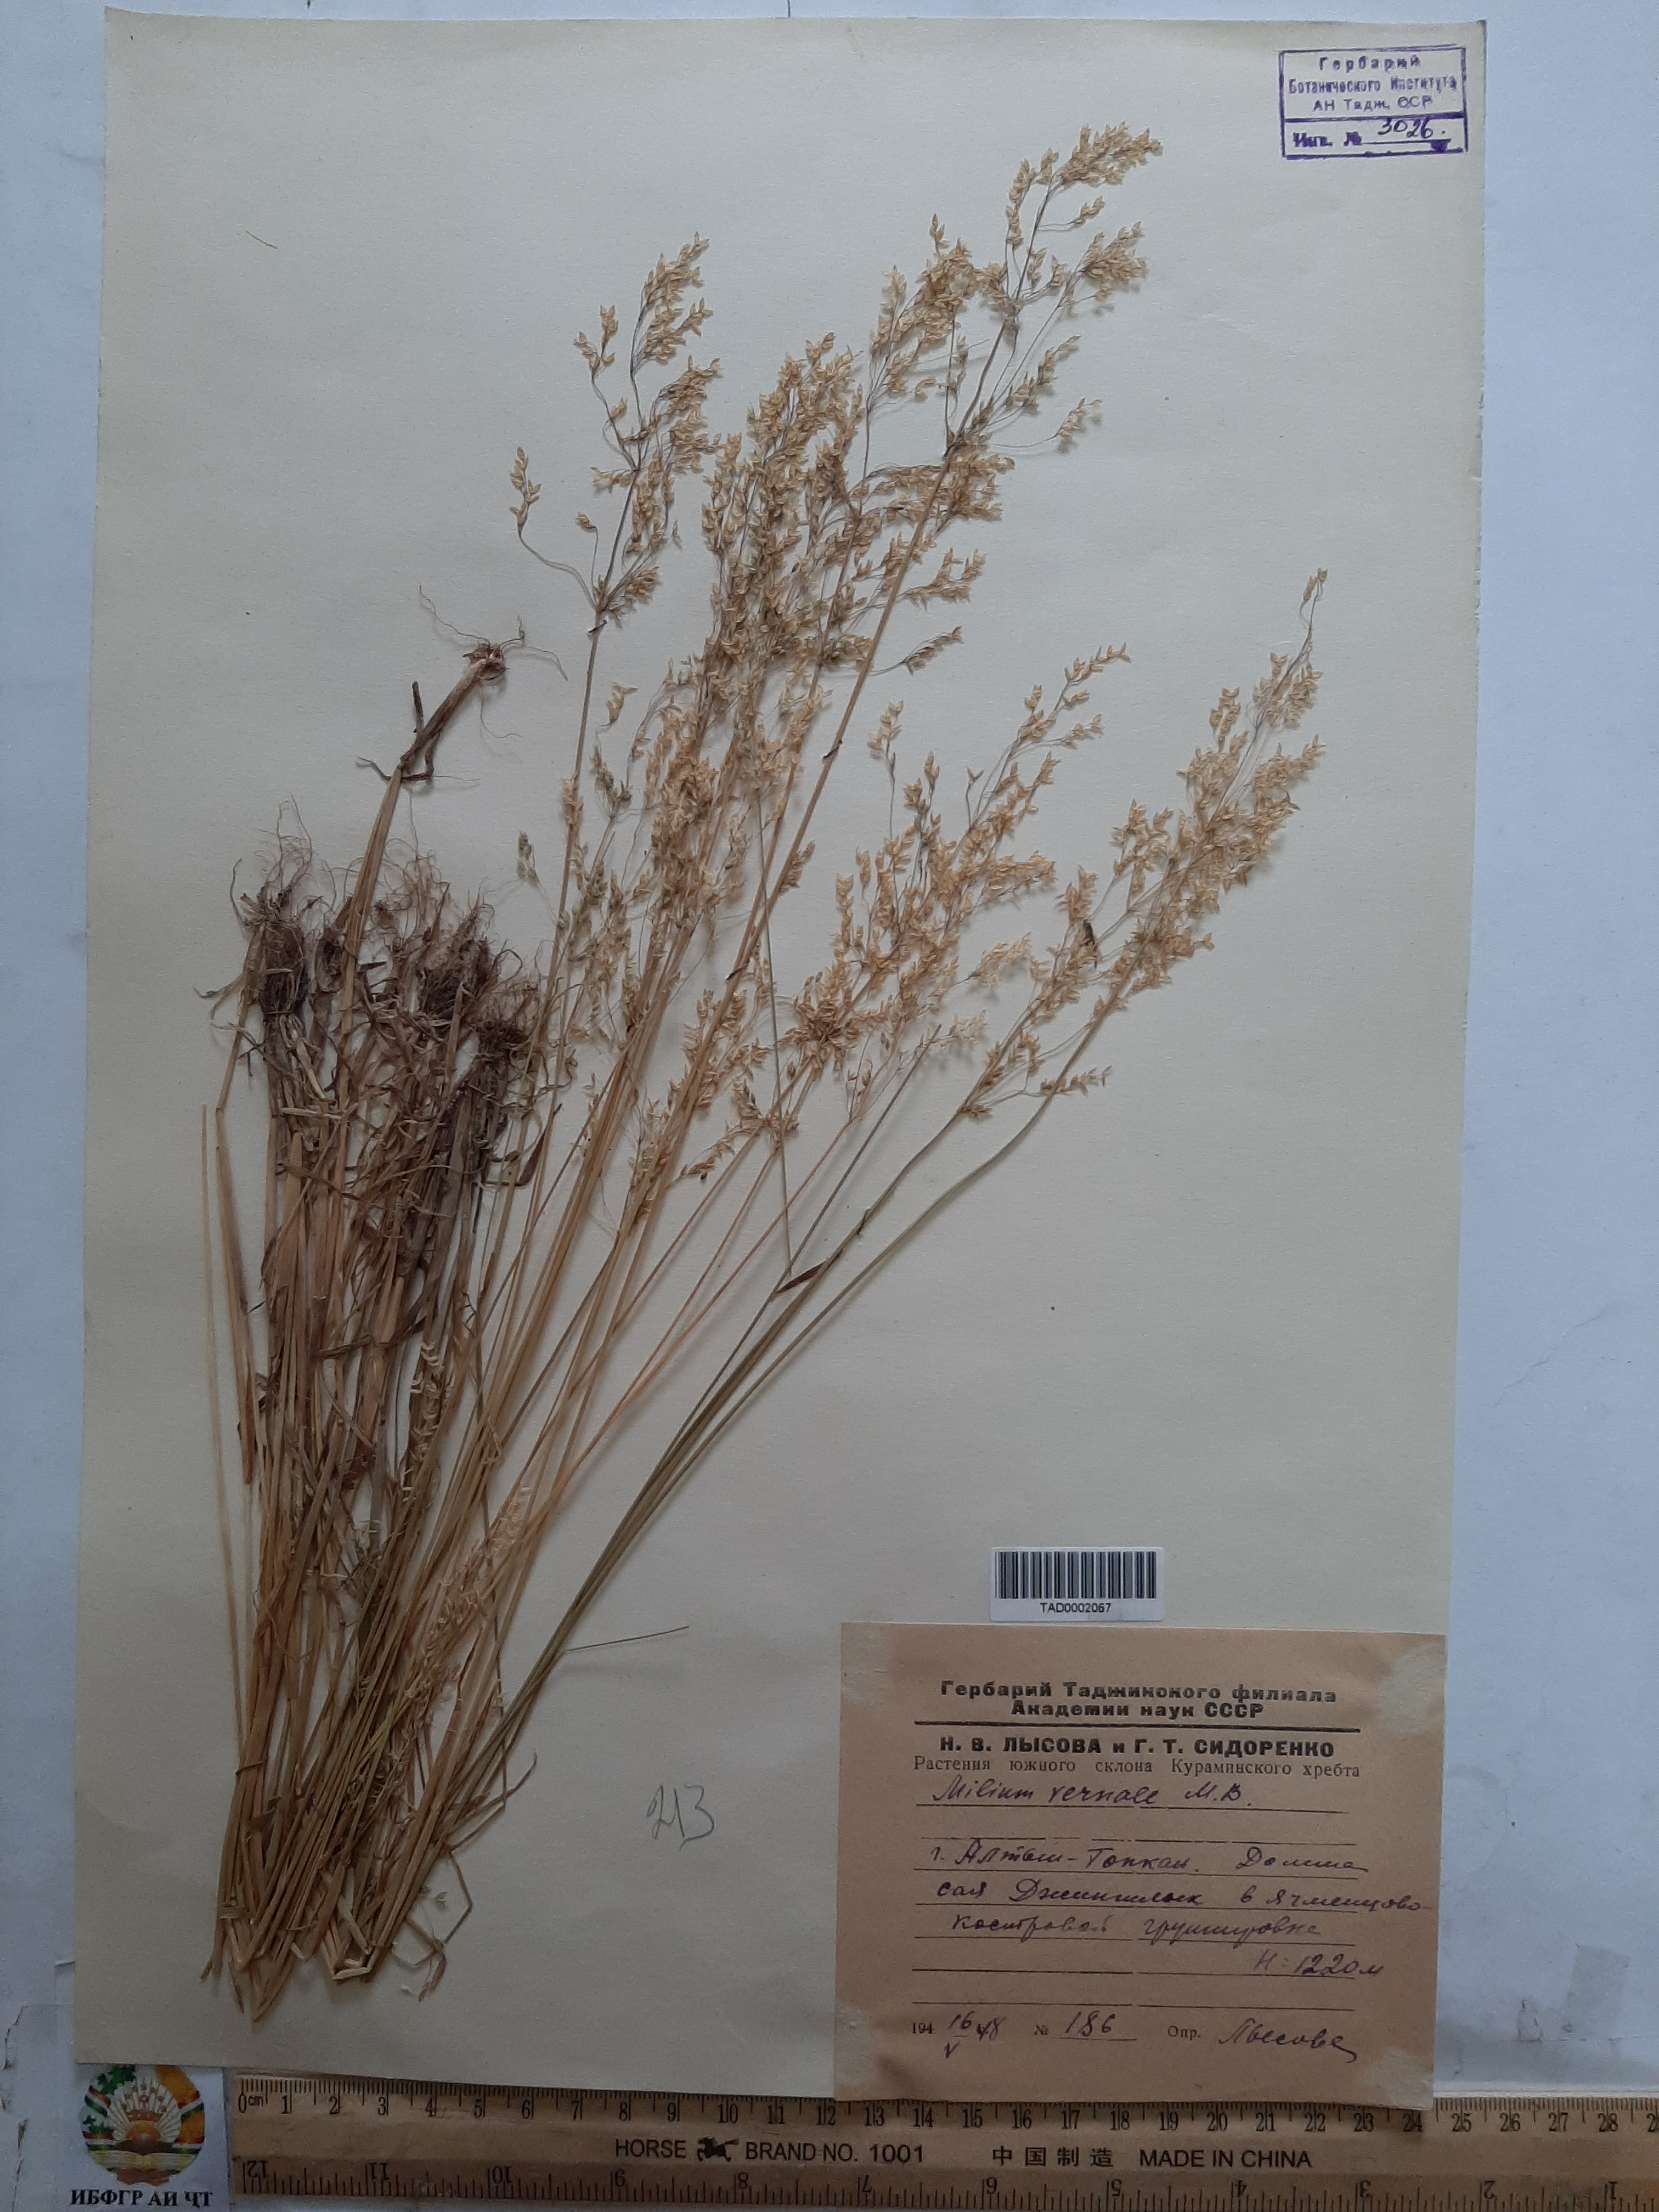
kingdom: Plantae
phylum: Tracheophyta
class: Liliopsida
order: Poales
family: Poaceae
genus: Milium
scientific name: Milium vernale
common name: Early millet
